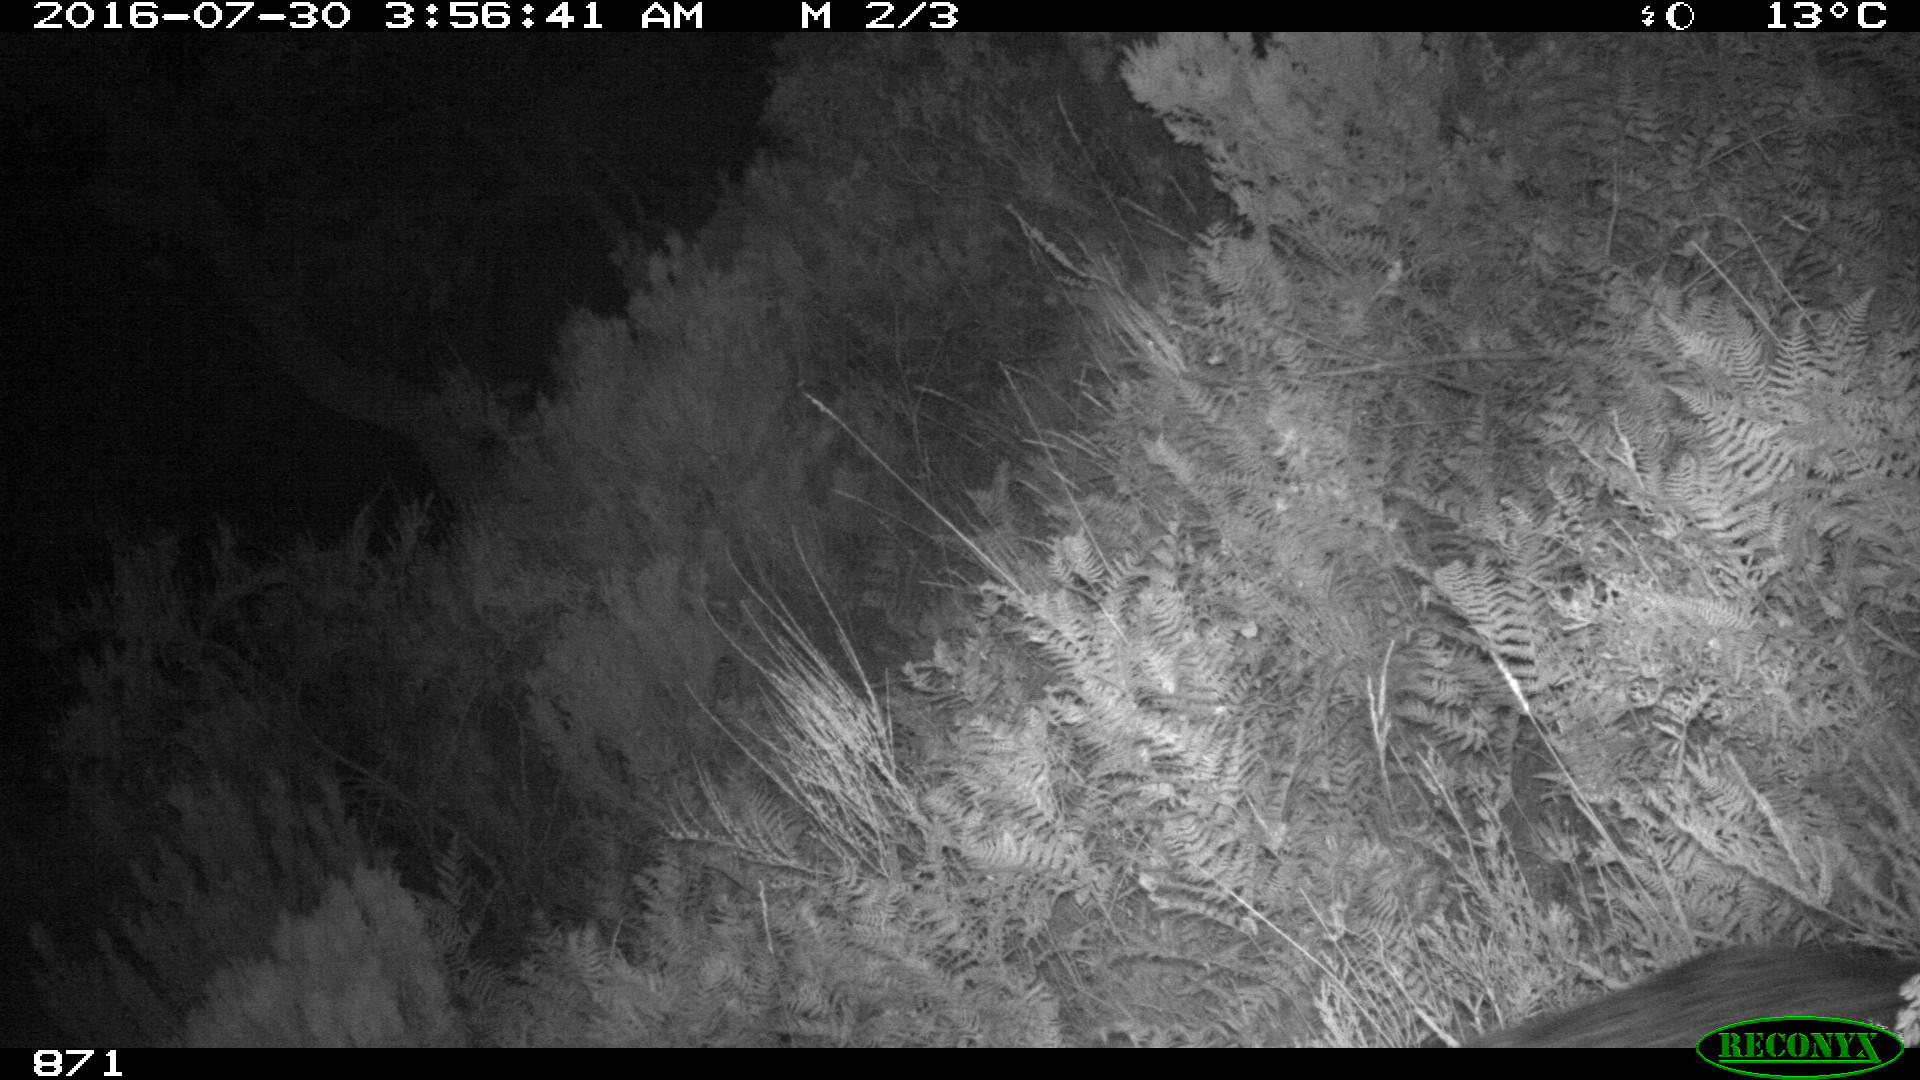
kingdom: Animalia
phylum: Chordata
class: Mammalia
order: Artiodactyla
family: Suidae
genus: Sus
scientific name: Sus scrofa
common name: Wild boar
